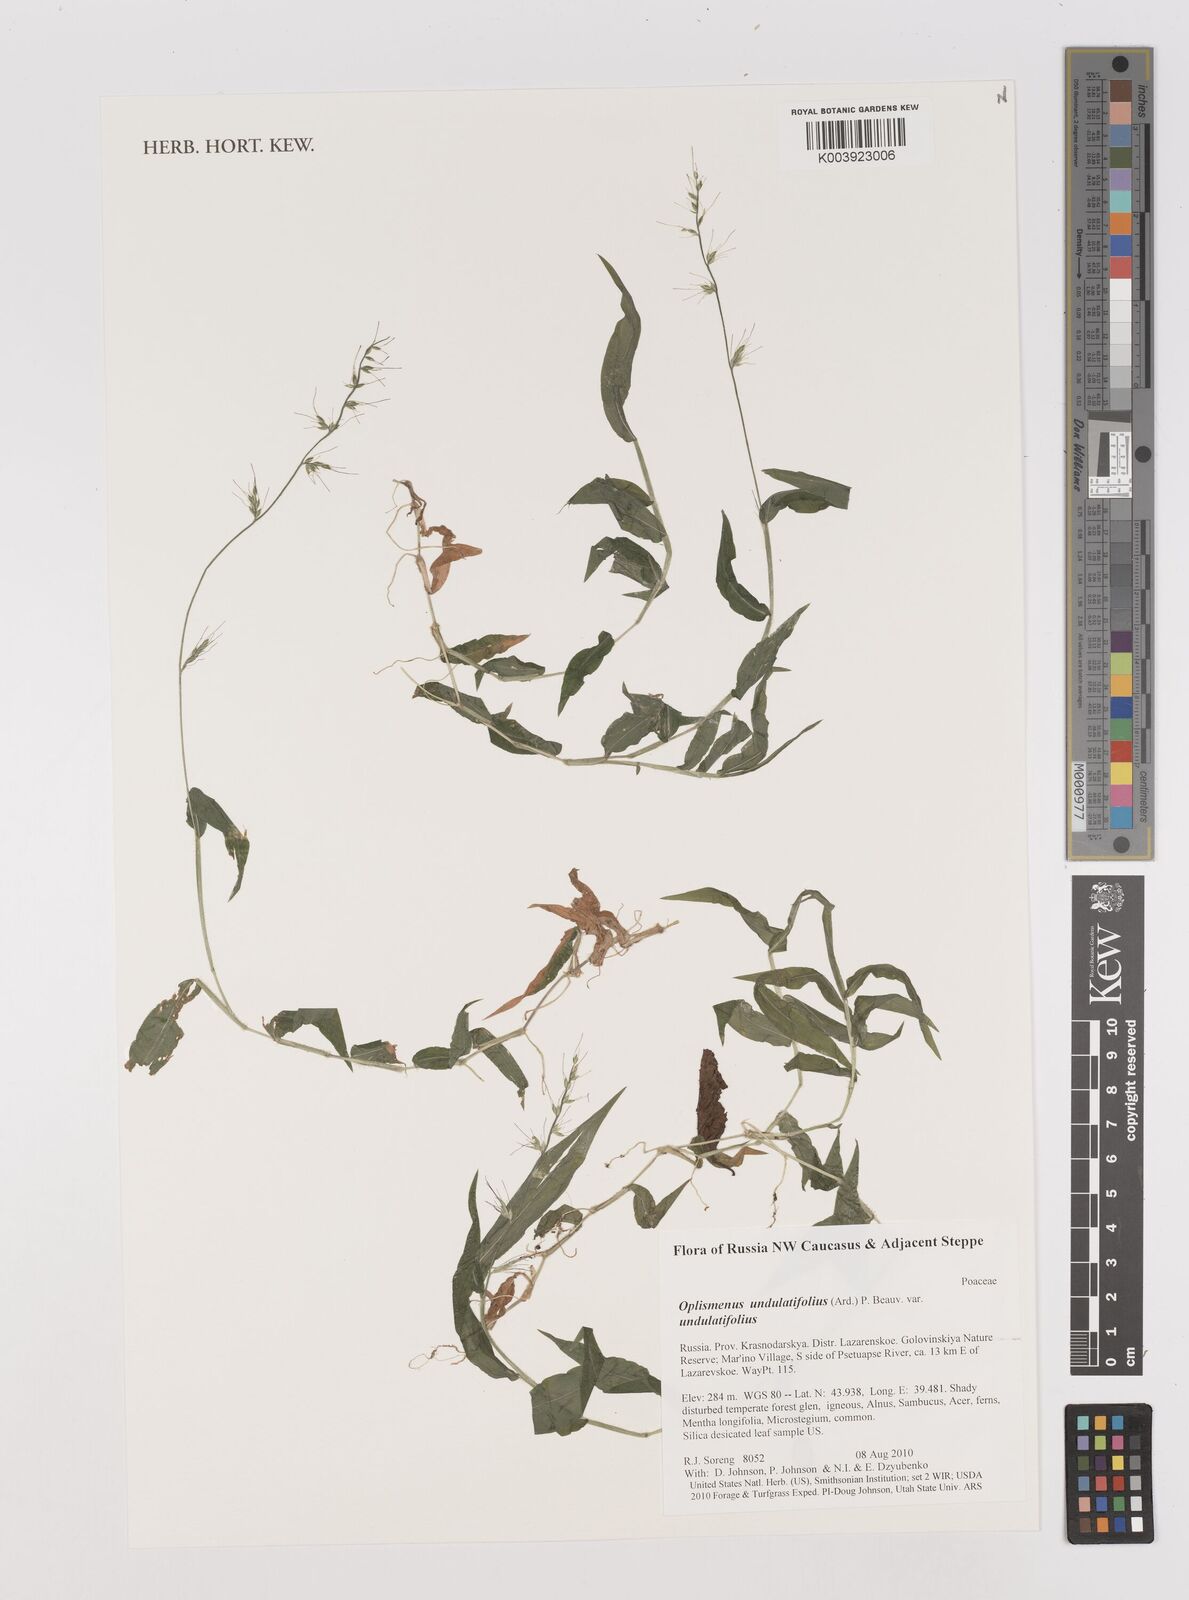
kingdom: Plantae
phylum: Tracheophyta
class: Liliopsida
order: Poales
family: Poaceae
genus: Oplismenus
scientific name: Oplismenus undulatifolius
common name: Wavyleaf basketgrass
